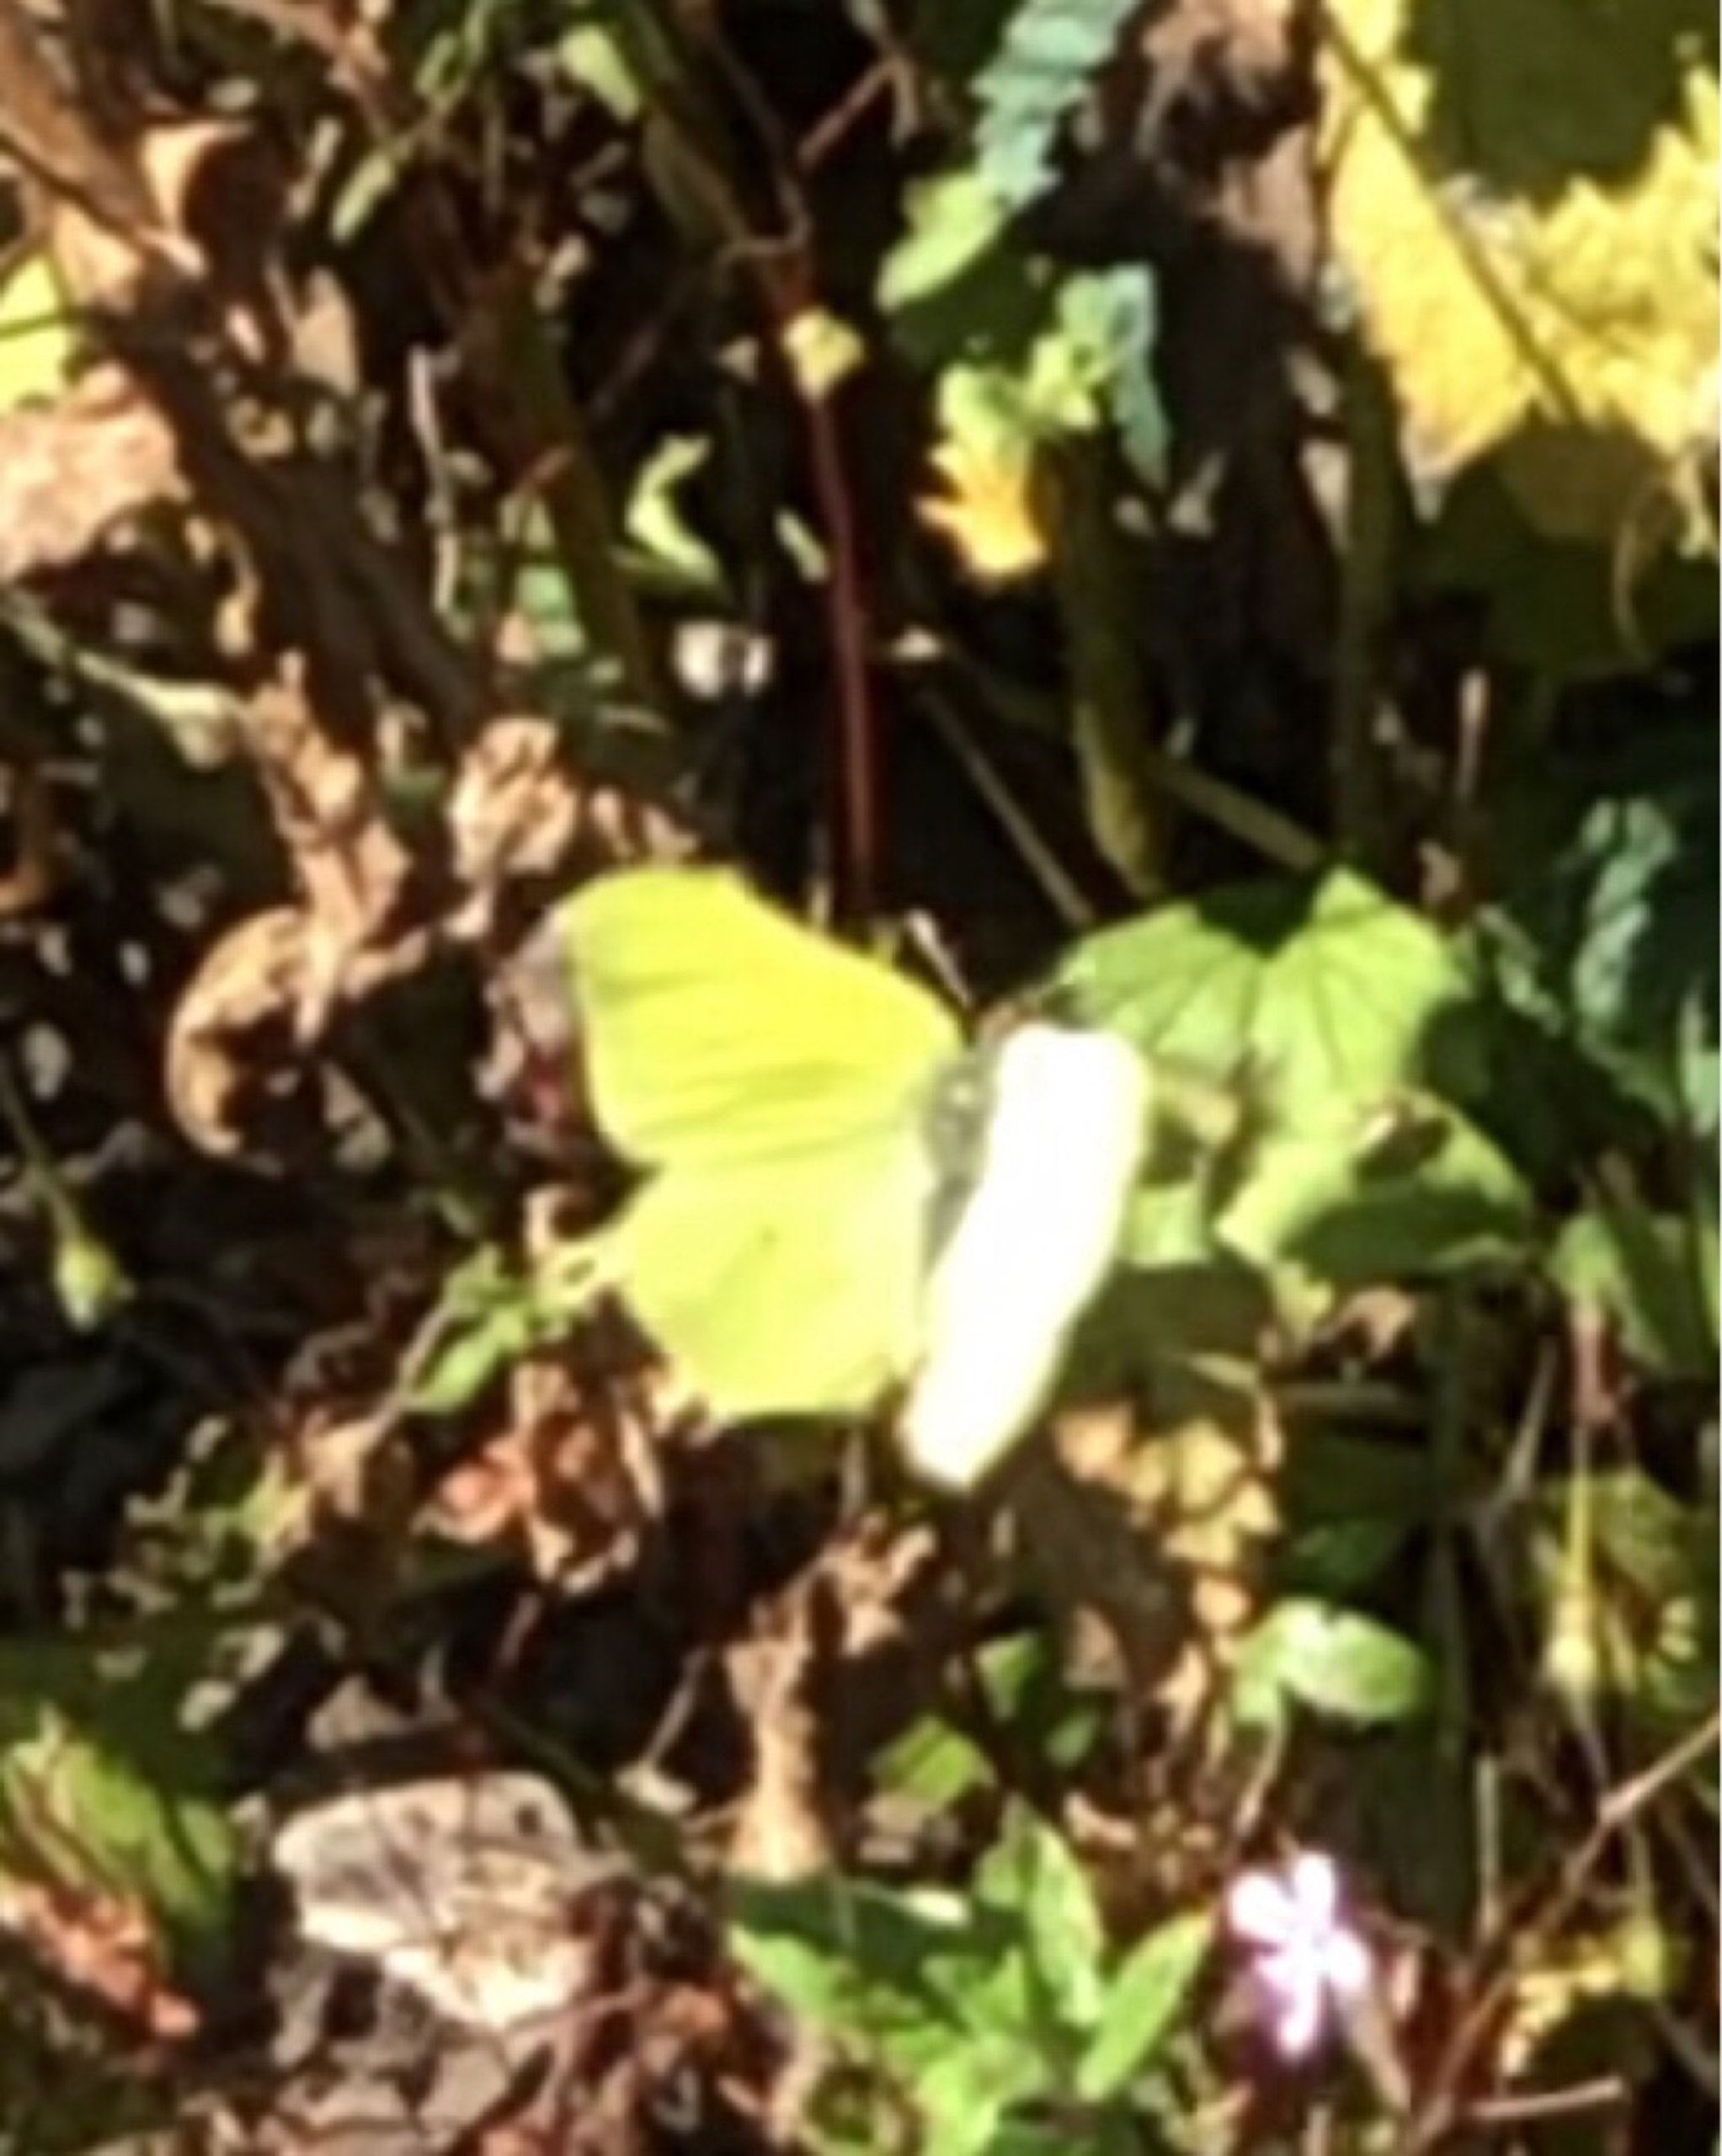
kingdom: Animalia
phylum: Arthropoda
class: Insecta
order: Lepidoptera
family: Pieridae
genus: Gonepteryx
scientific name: Gonepteryx rhamni
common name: Citronsommerfugl
